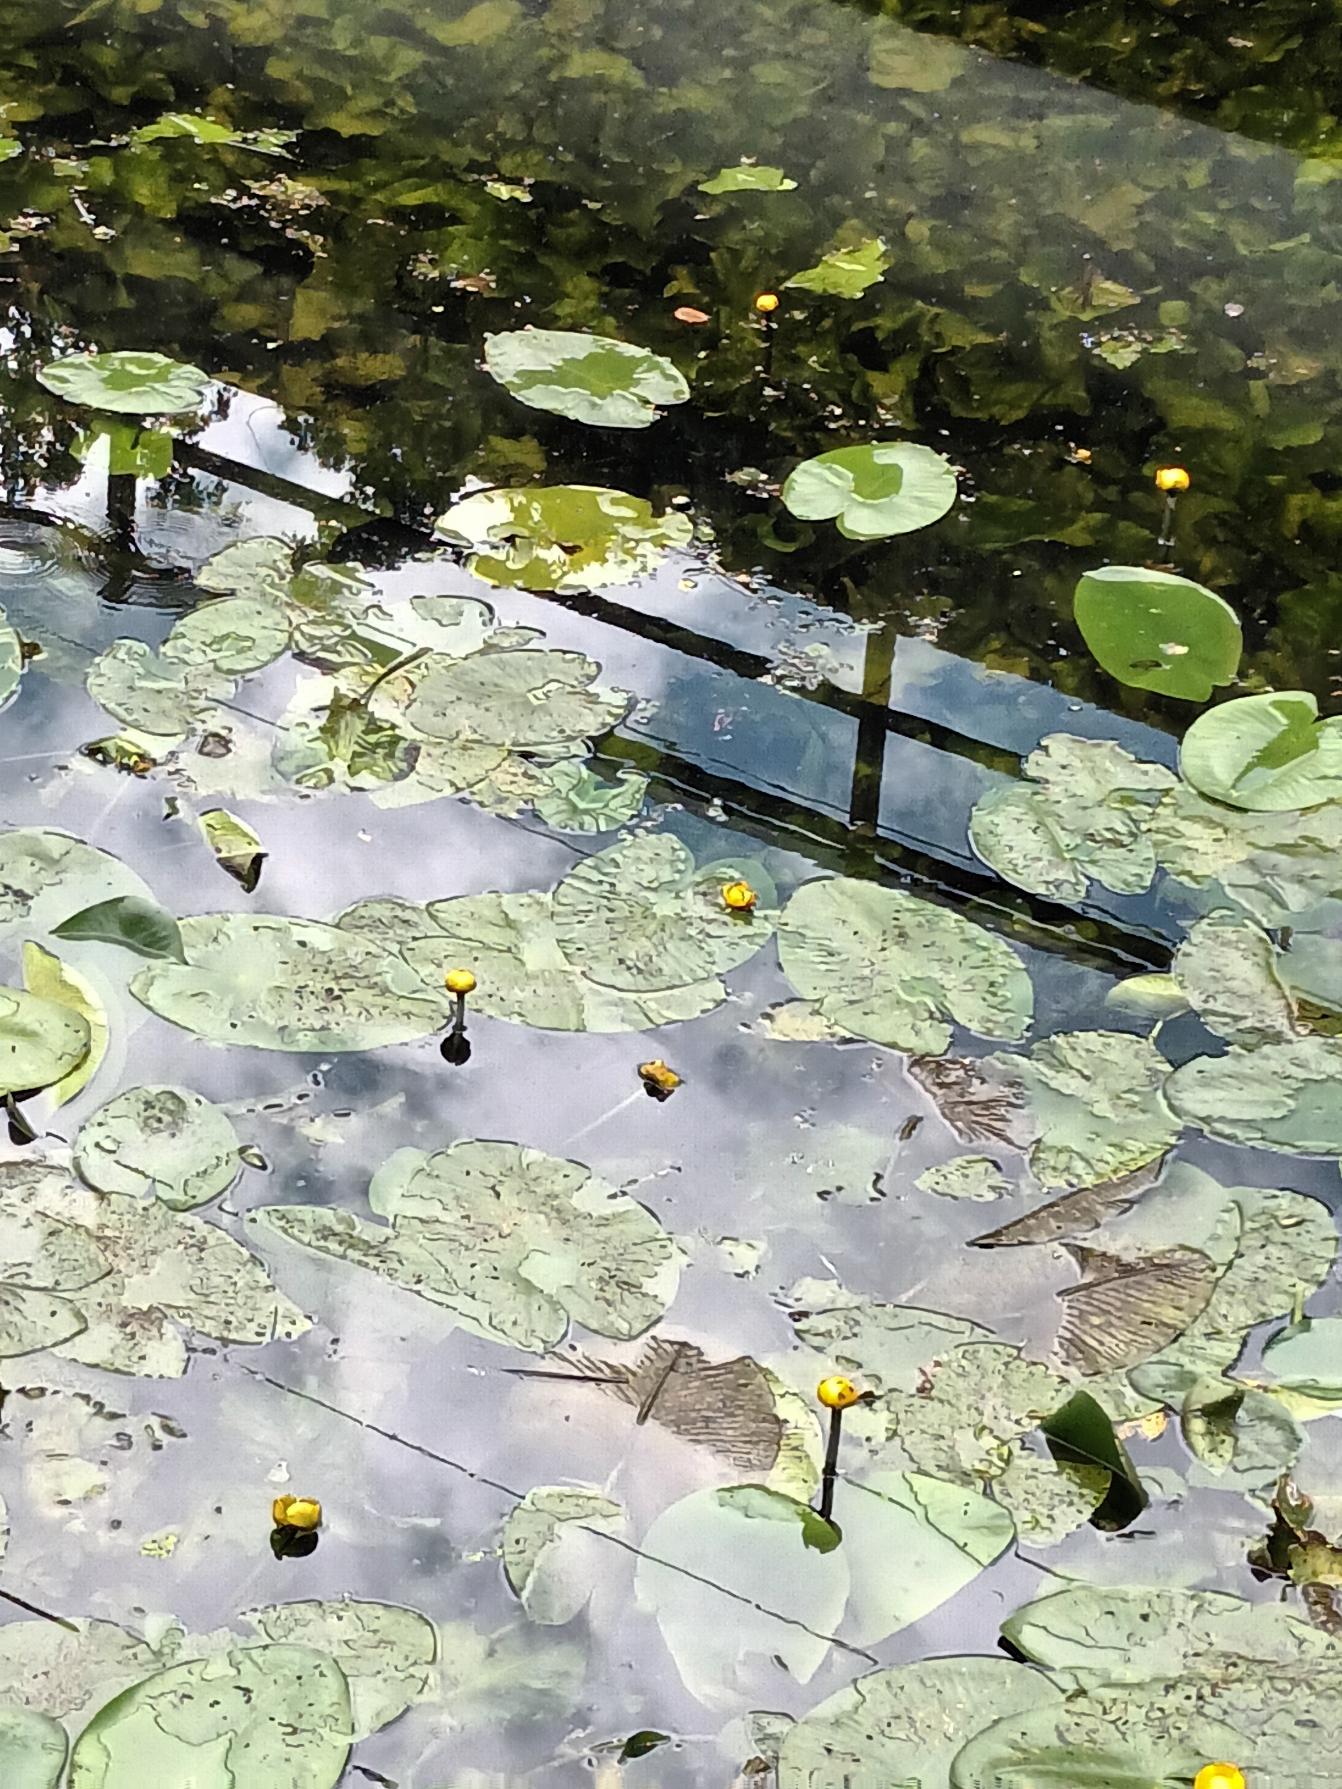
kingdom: Plantae
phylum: Tracheophyta
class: Magnoliopsida
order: Nymphaeales
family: Nymphaeaceae
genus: Nuphar
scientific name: Nuphar lutea
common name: Gul åkande
